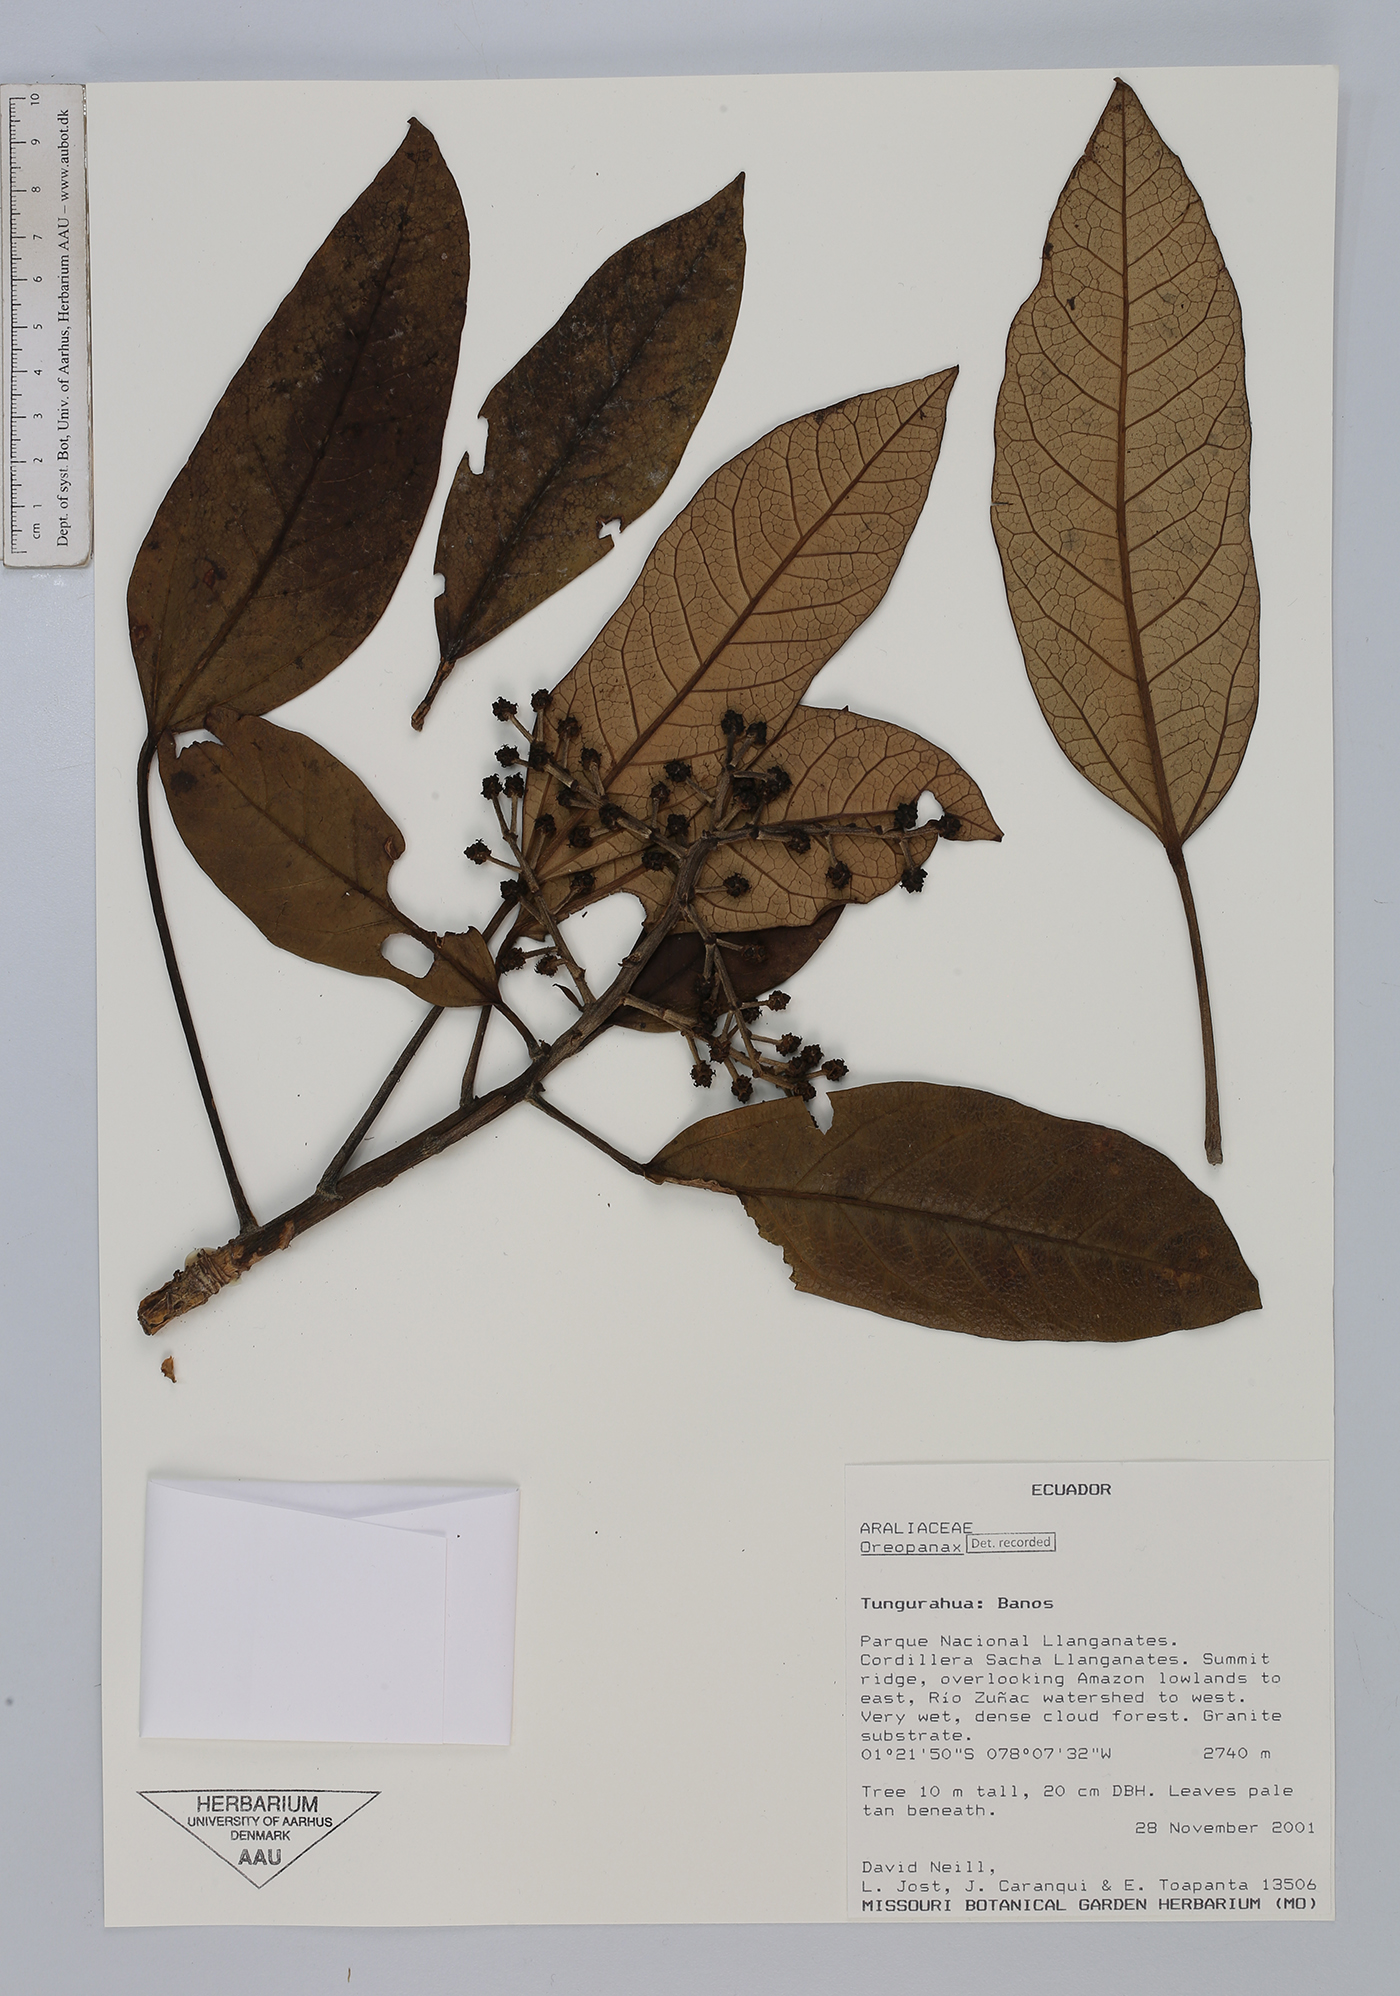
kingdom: Plantae
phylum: Tracheophyta
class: Magnoliopsida
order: Apiales
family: Araliaceae
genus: Oreopanax
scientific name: Oreopanax
